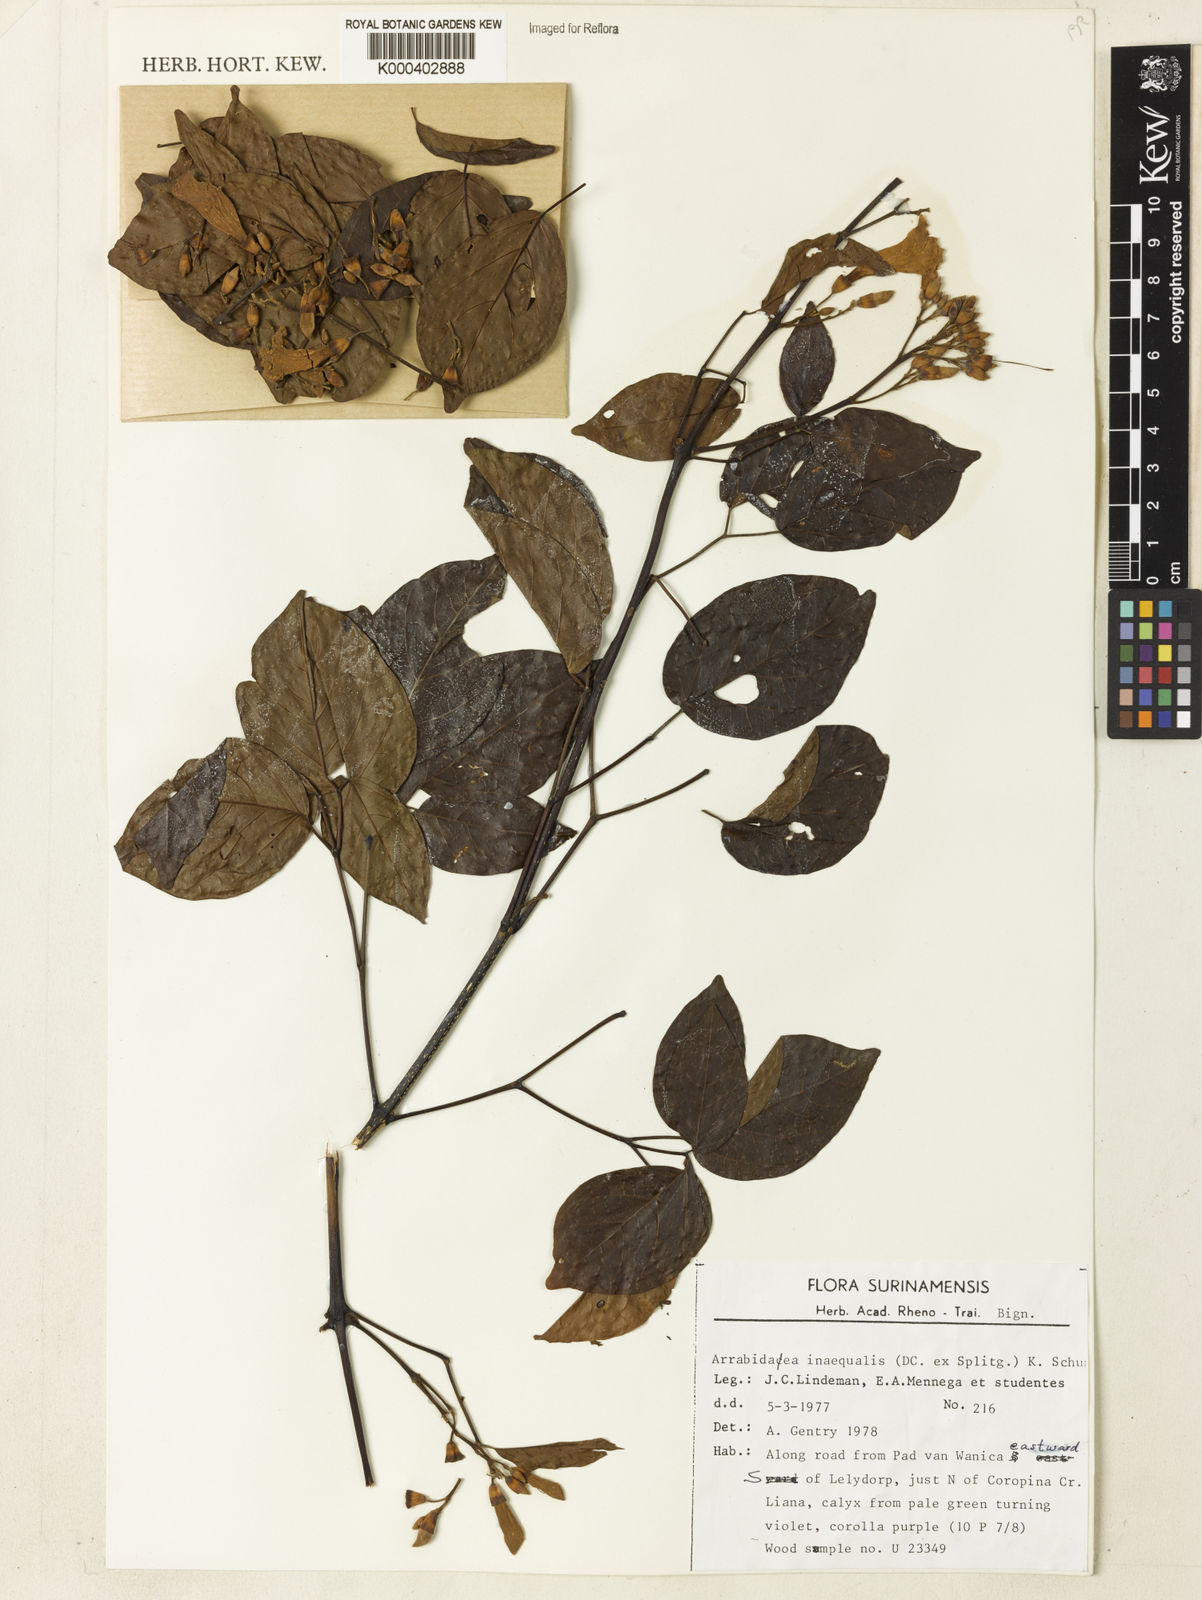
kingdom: Plantae
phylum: Tracheophyta
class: Magnoliopsida
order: Lamiales
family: Bignoniaceae
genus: Cuspidaria
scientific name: Cuspidaria inaequalis
